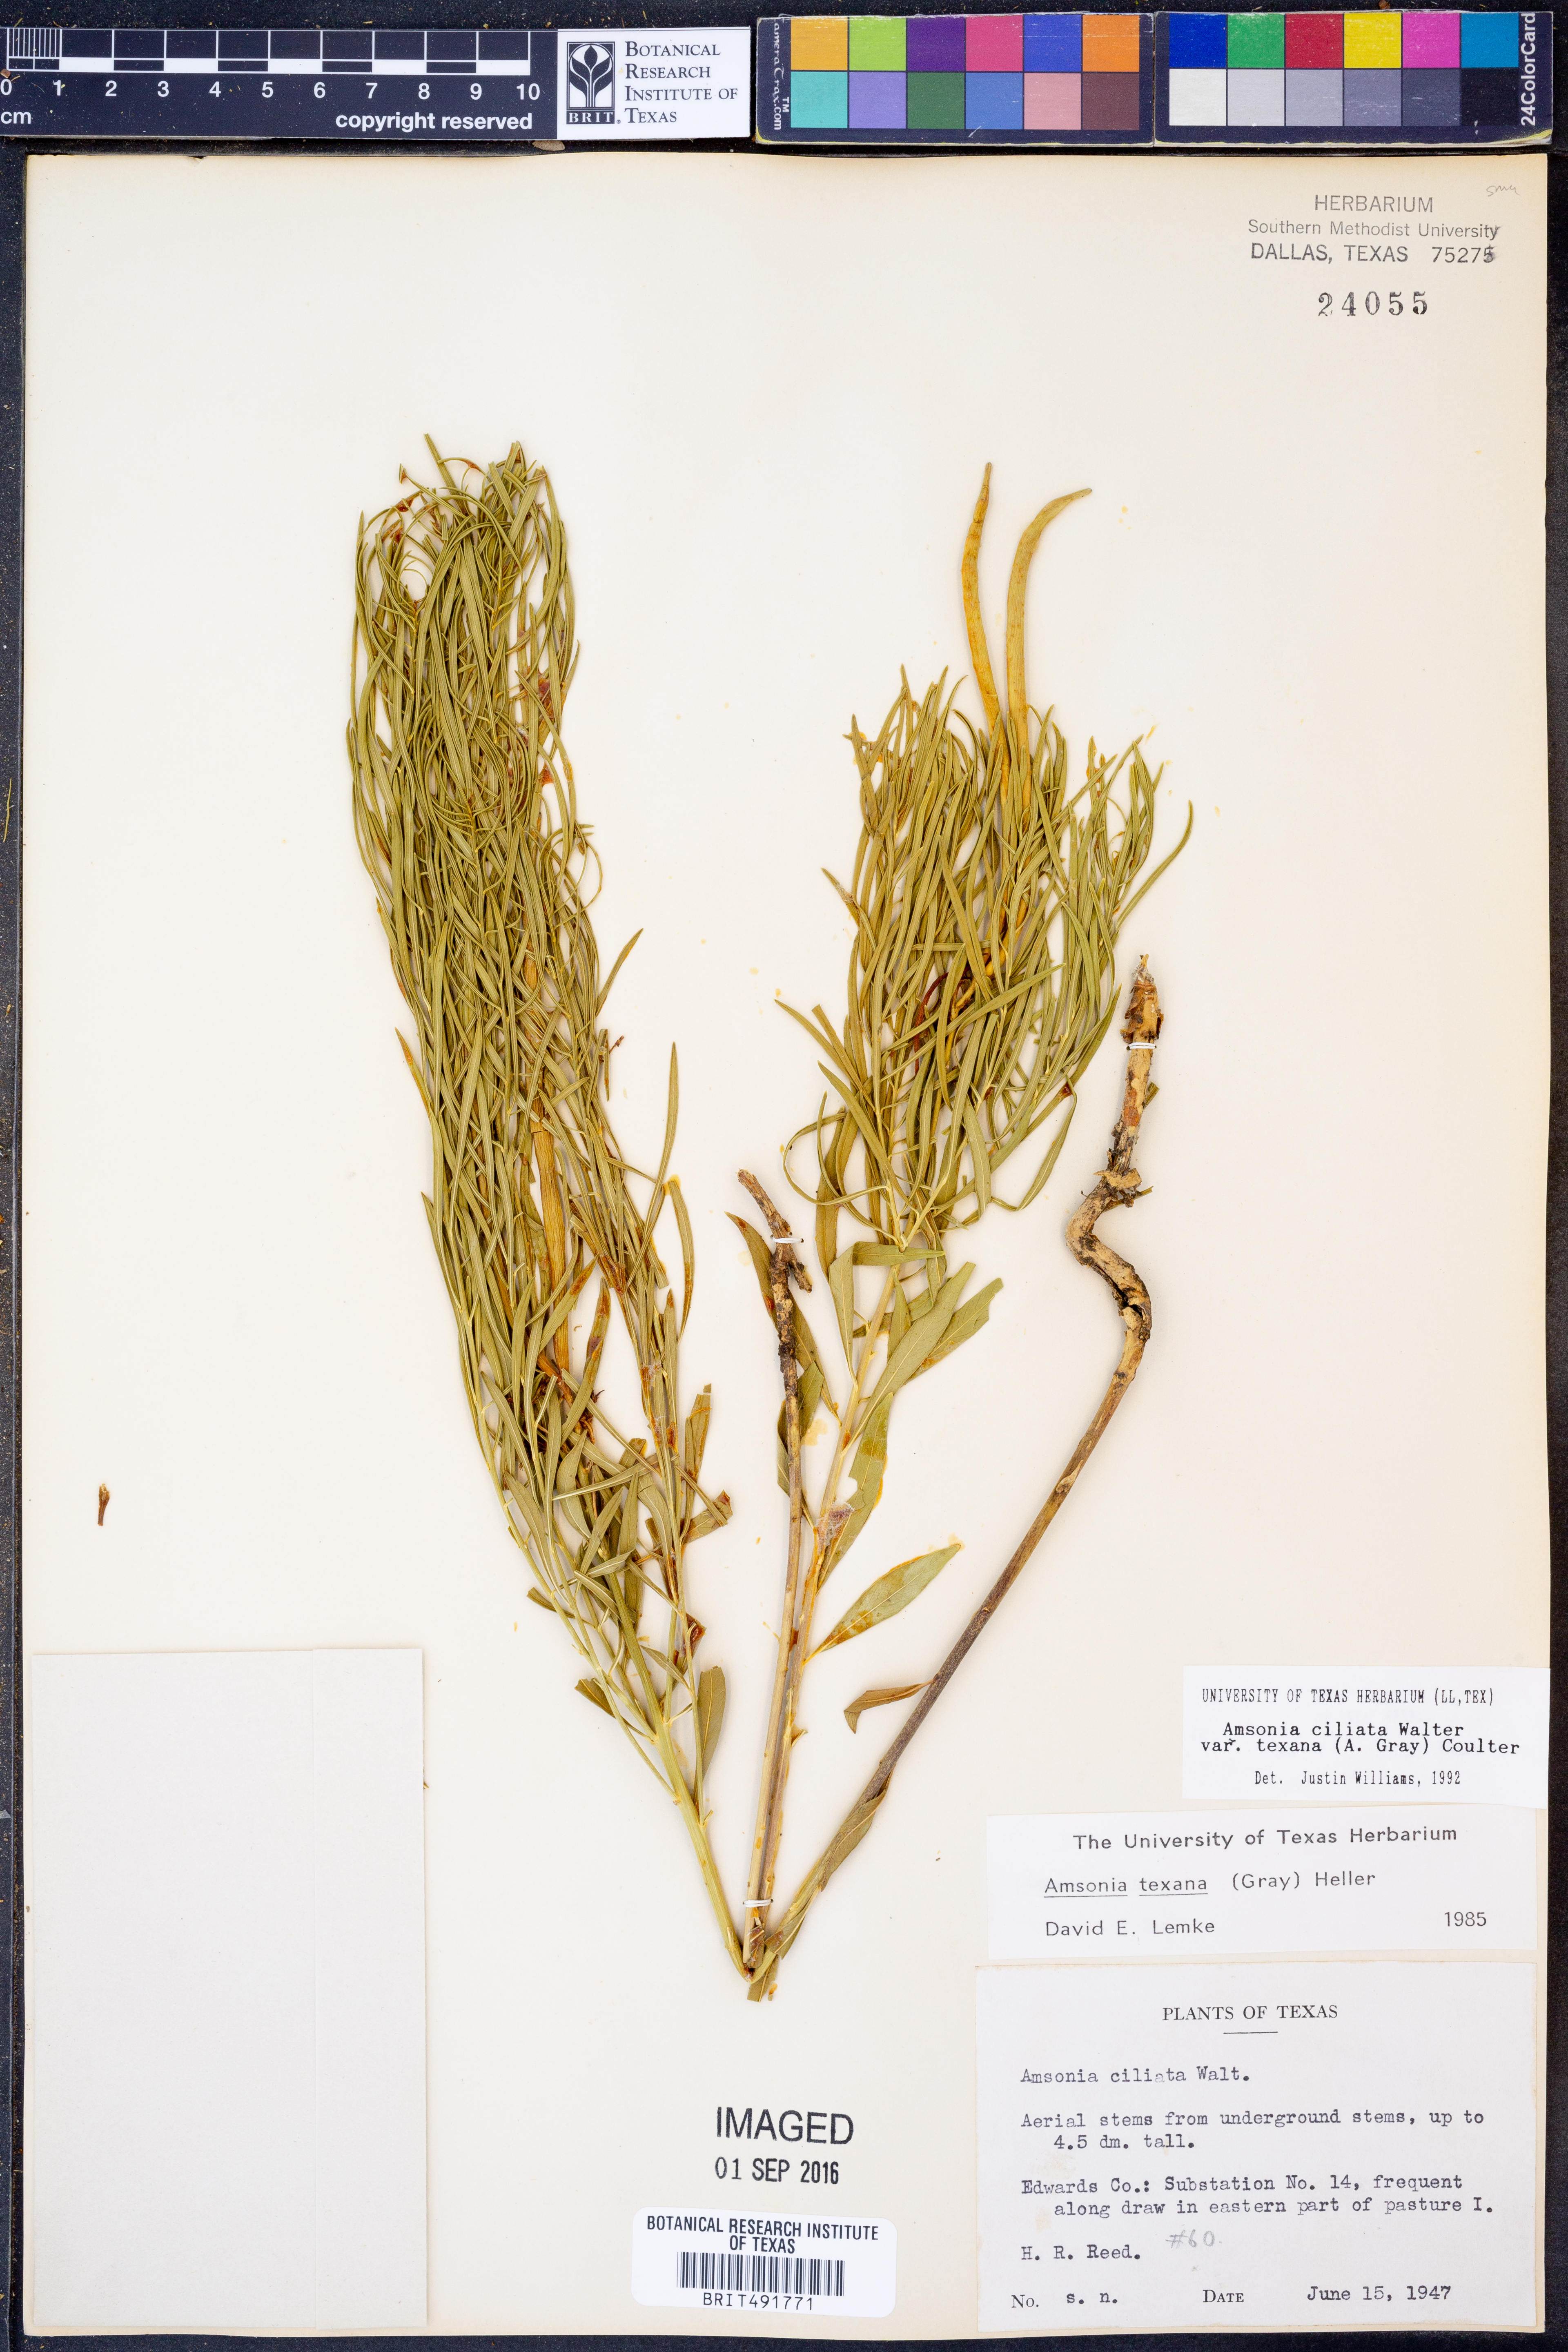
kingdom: Plantae
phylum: Tracheophyta
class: Magnoliopsida
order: Gentianales
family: Apocynaceae
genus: Amsonia
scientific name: Amsonia ciliata
